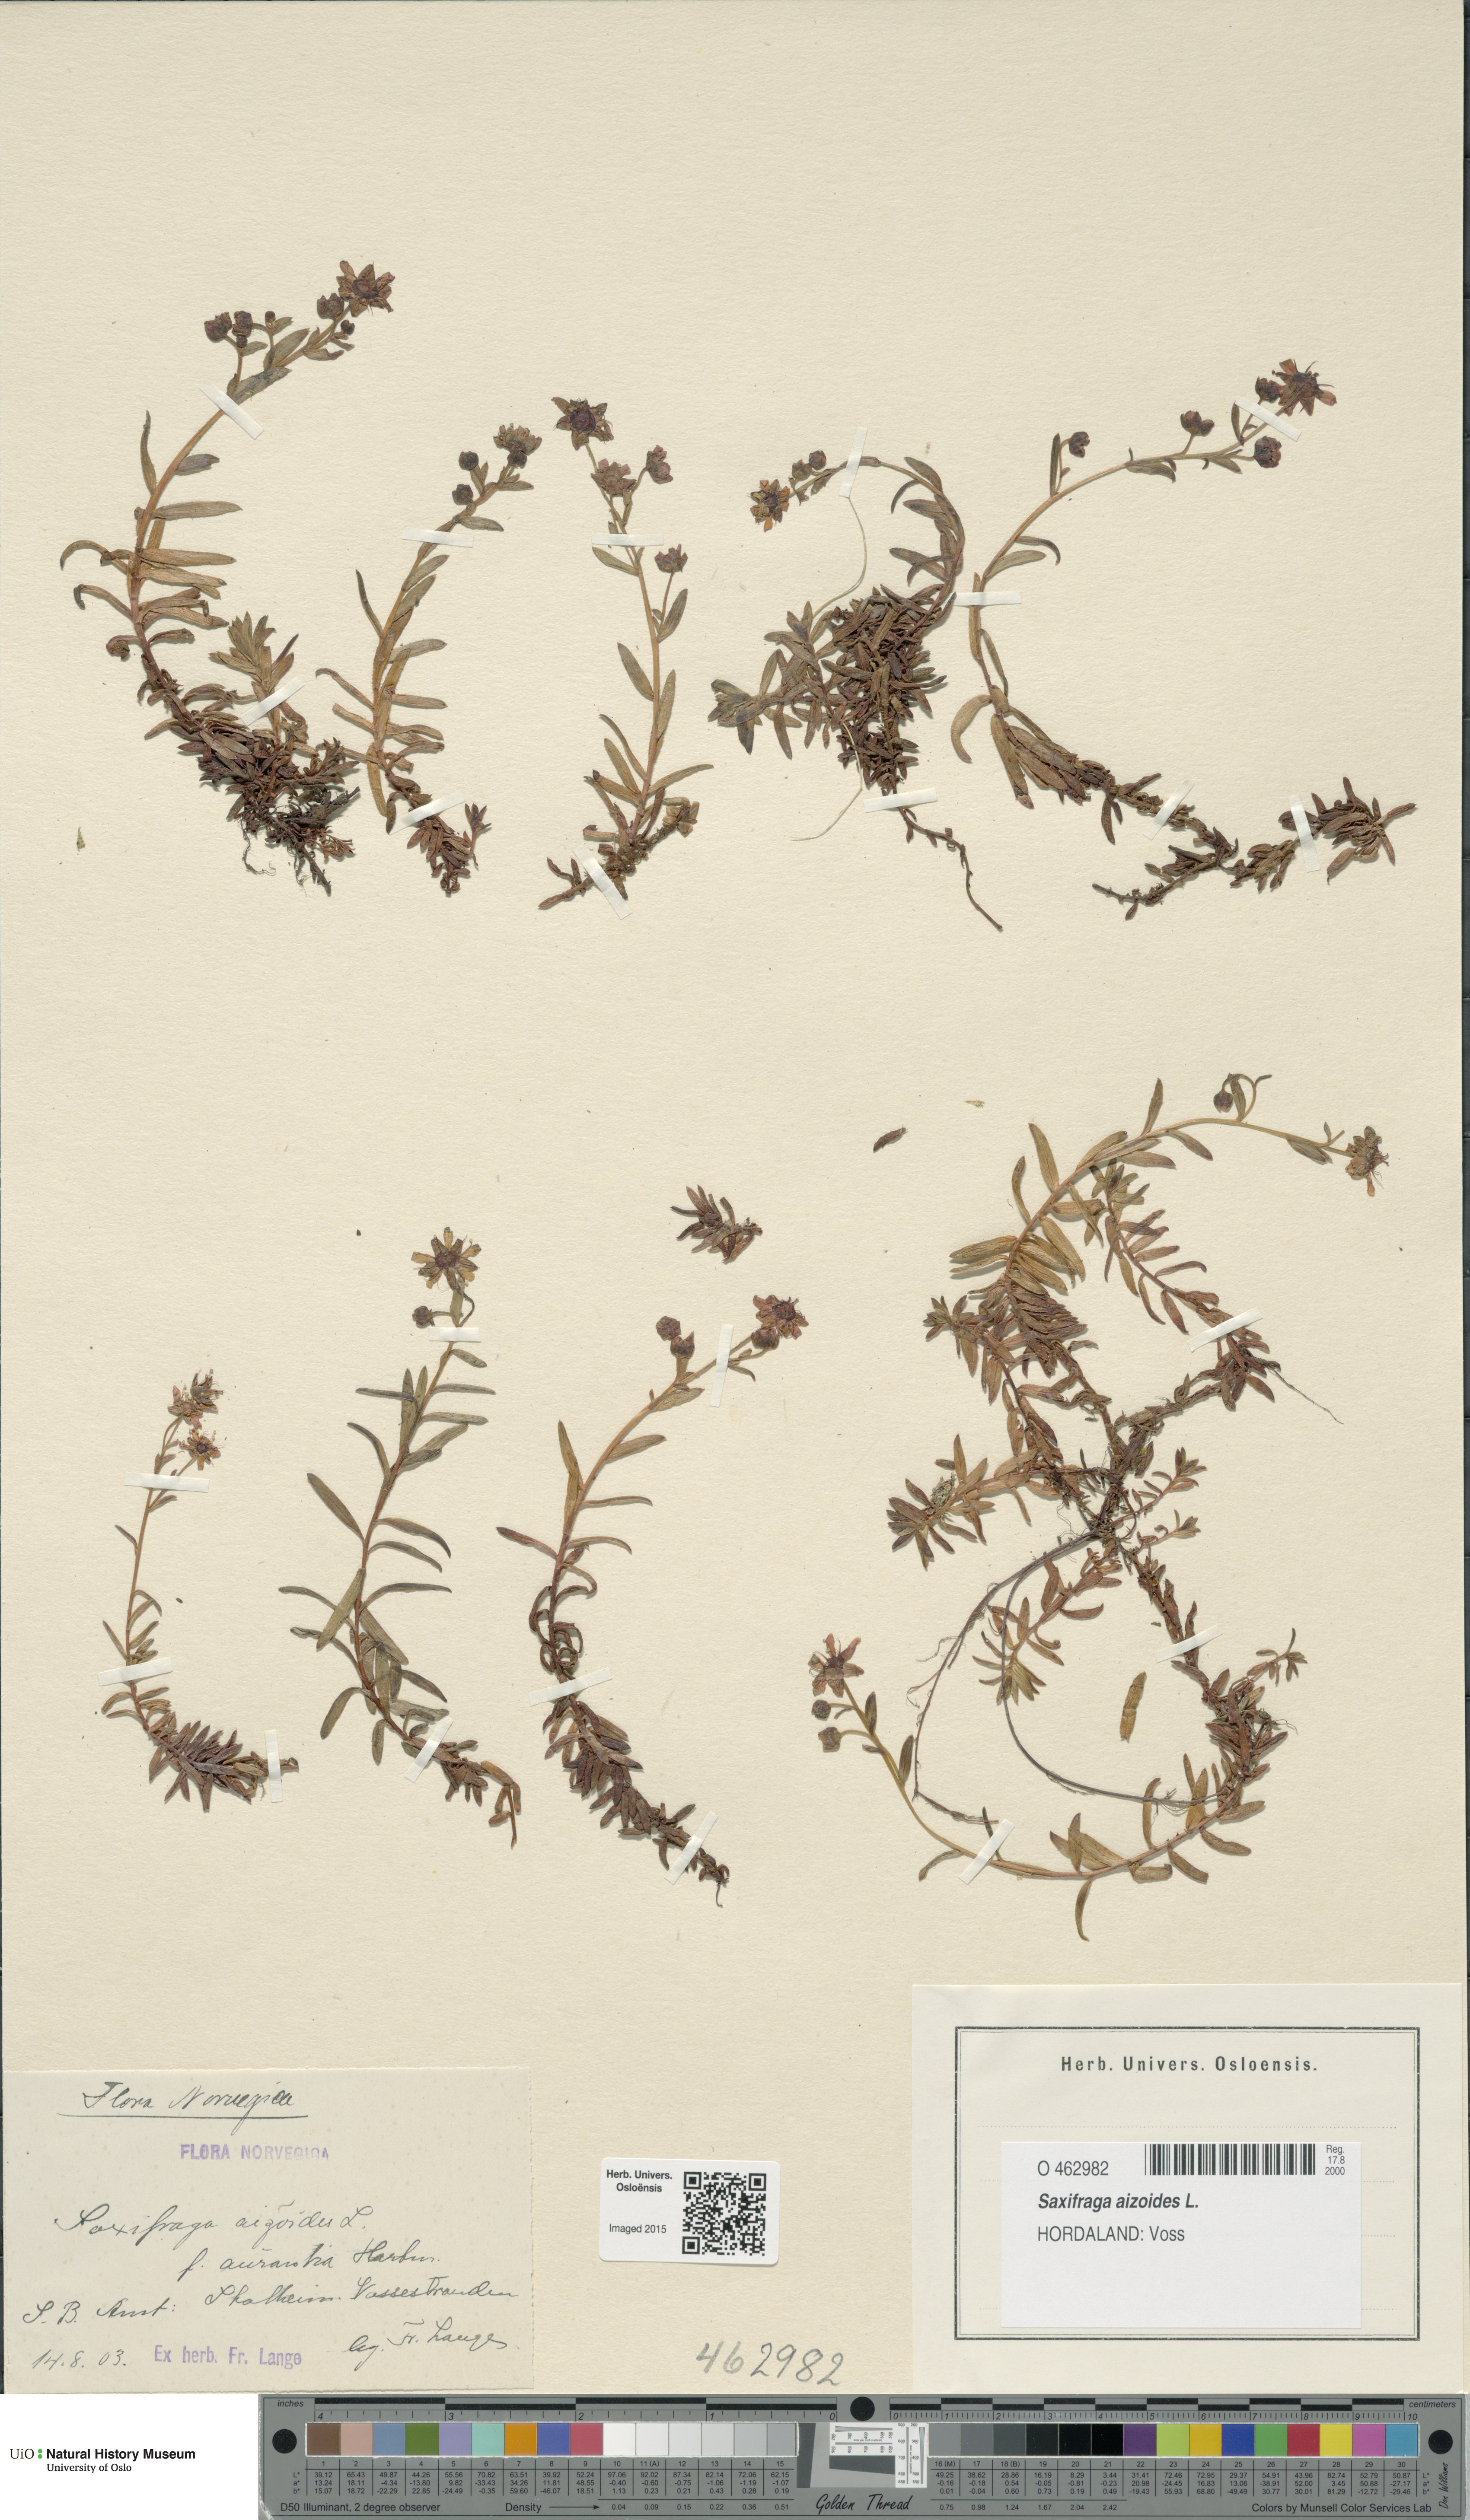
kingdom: Plantae
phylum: Tracheophyta
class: Magnoliopsida
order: Saxifragales
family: Saxifragaceae
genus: Saxifraga
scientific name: Saxifraga aizoides
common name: Yellow mountain saxifrage
